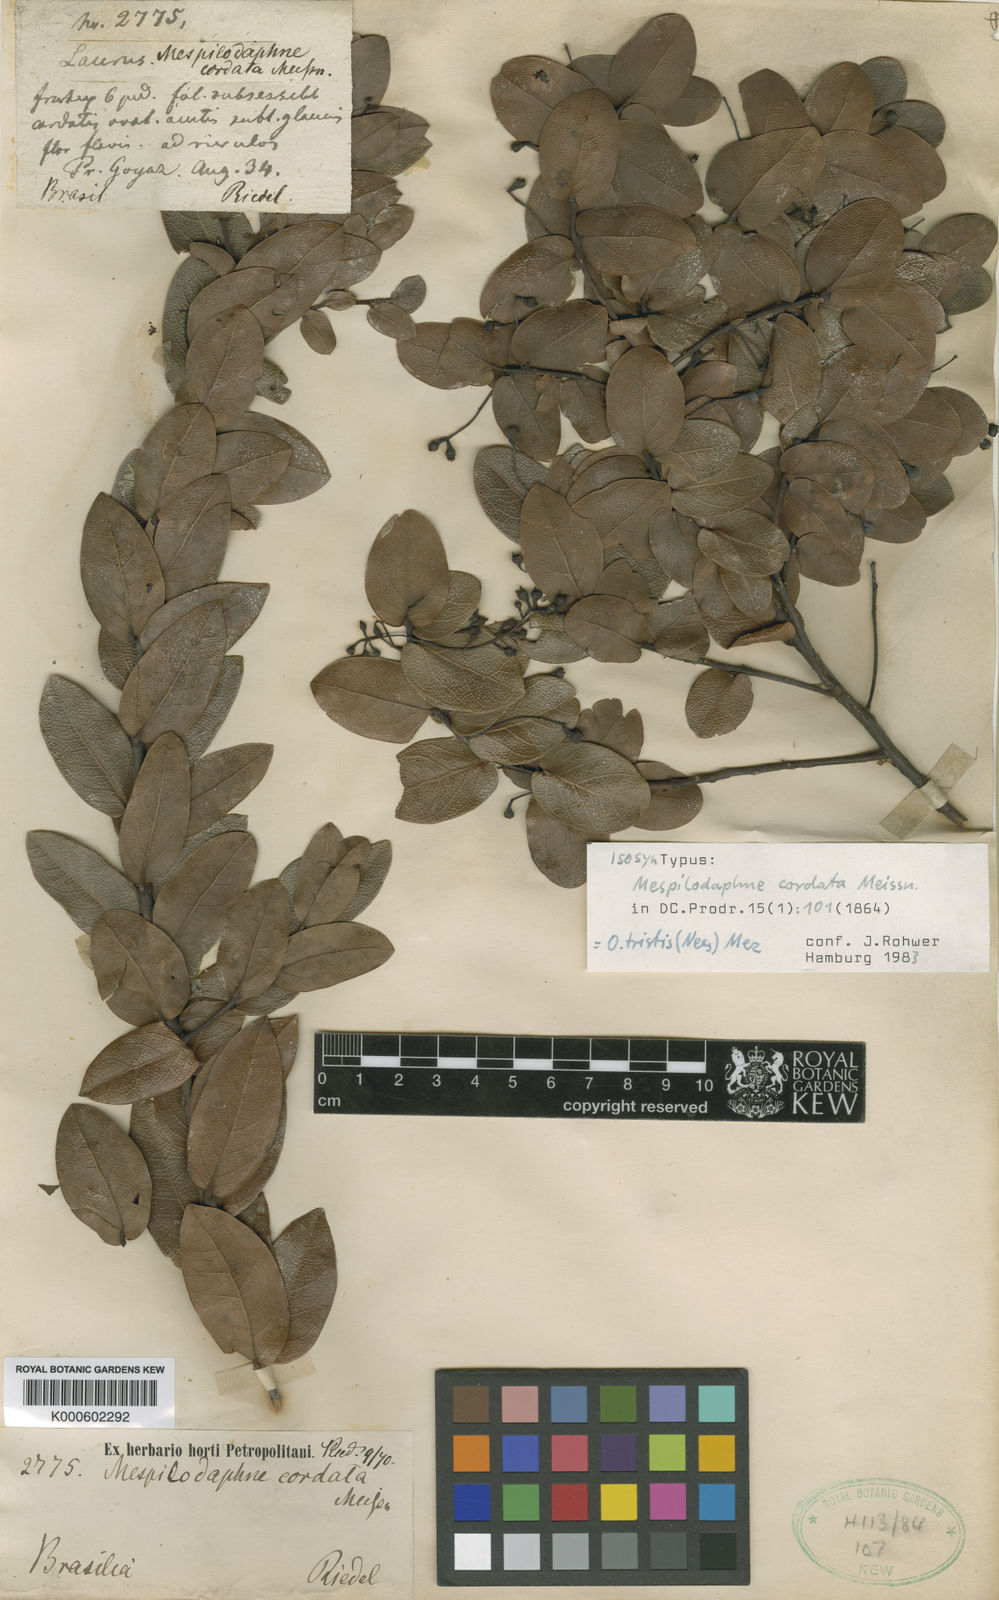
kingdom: Plantae
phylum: Tracheophyta
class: Magnoliopsida
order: Laurales
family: Lauraceae
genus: Mespilodaphne
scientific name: Mespilodaphne tristis
